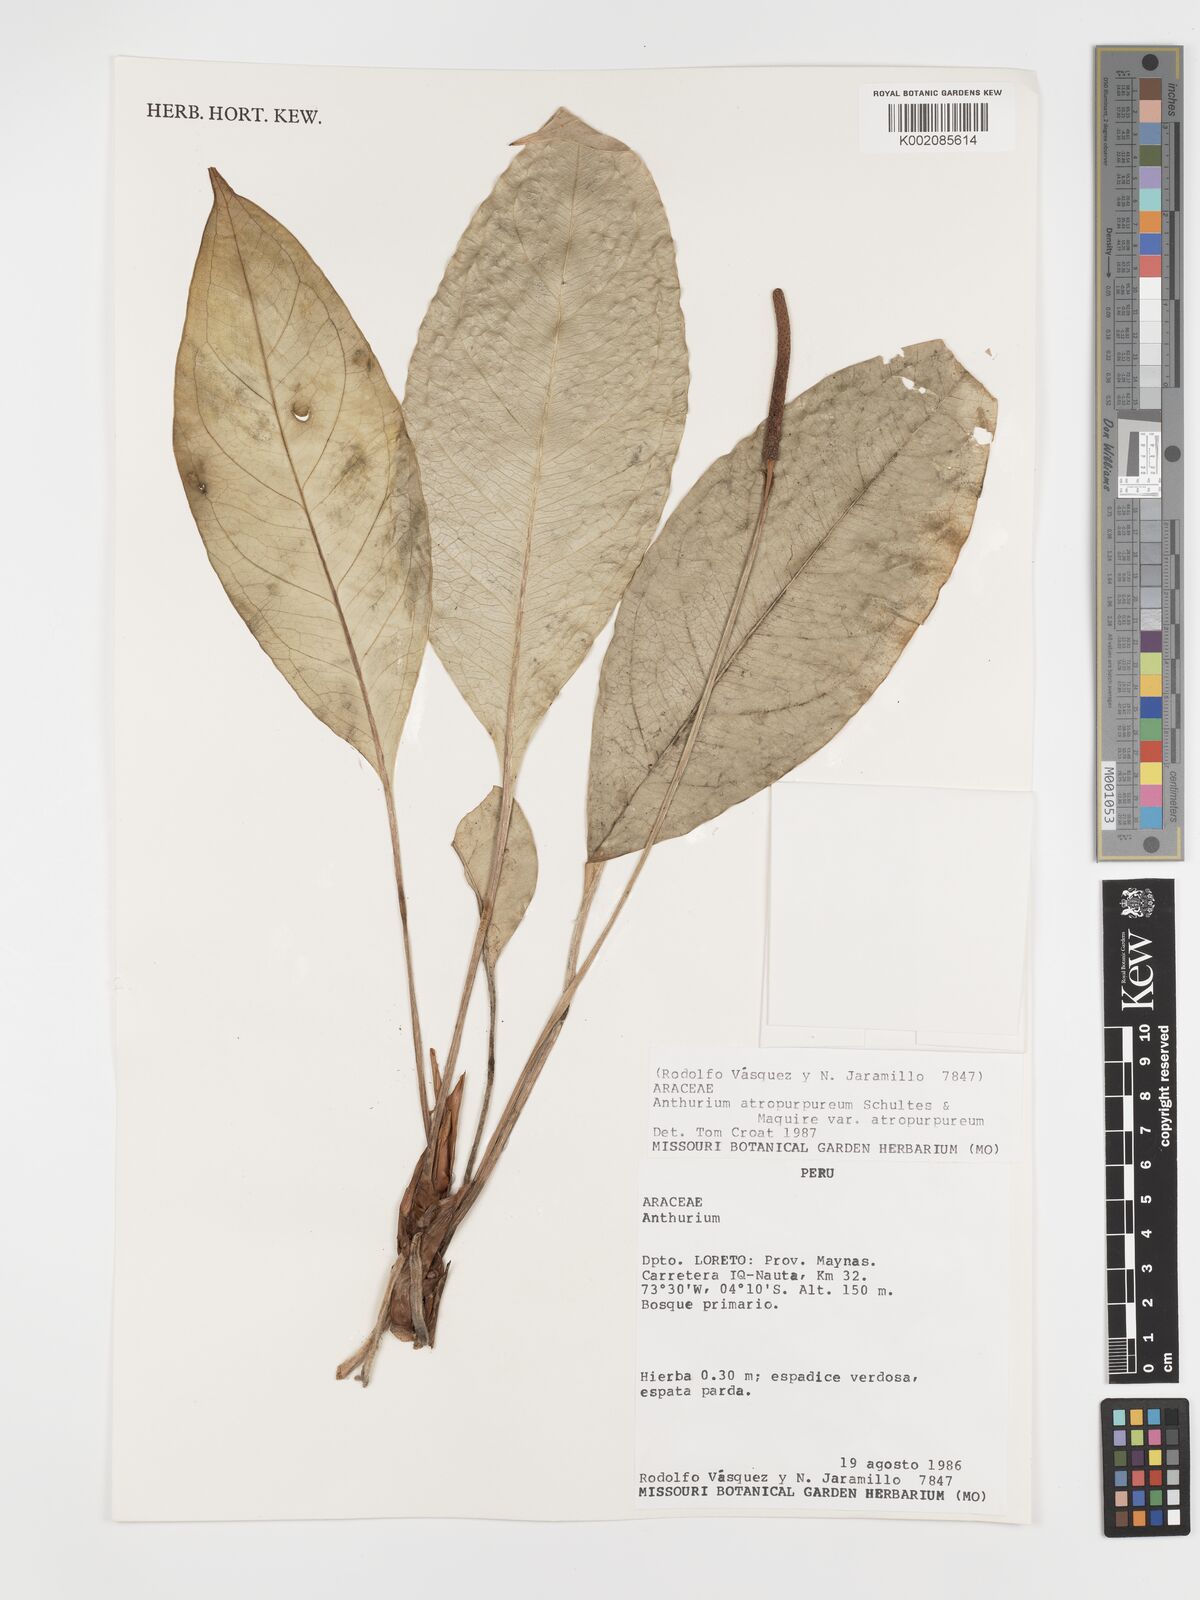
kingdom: Plantae
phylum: Tracheophyta
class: Liliopsida
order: Alismatales
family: Araceae
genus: Anthurium
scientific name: Anthurium atropurpureum
